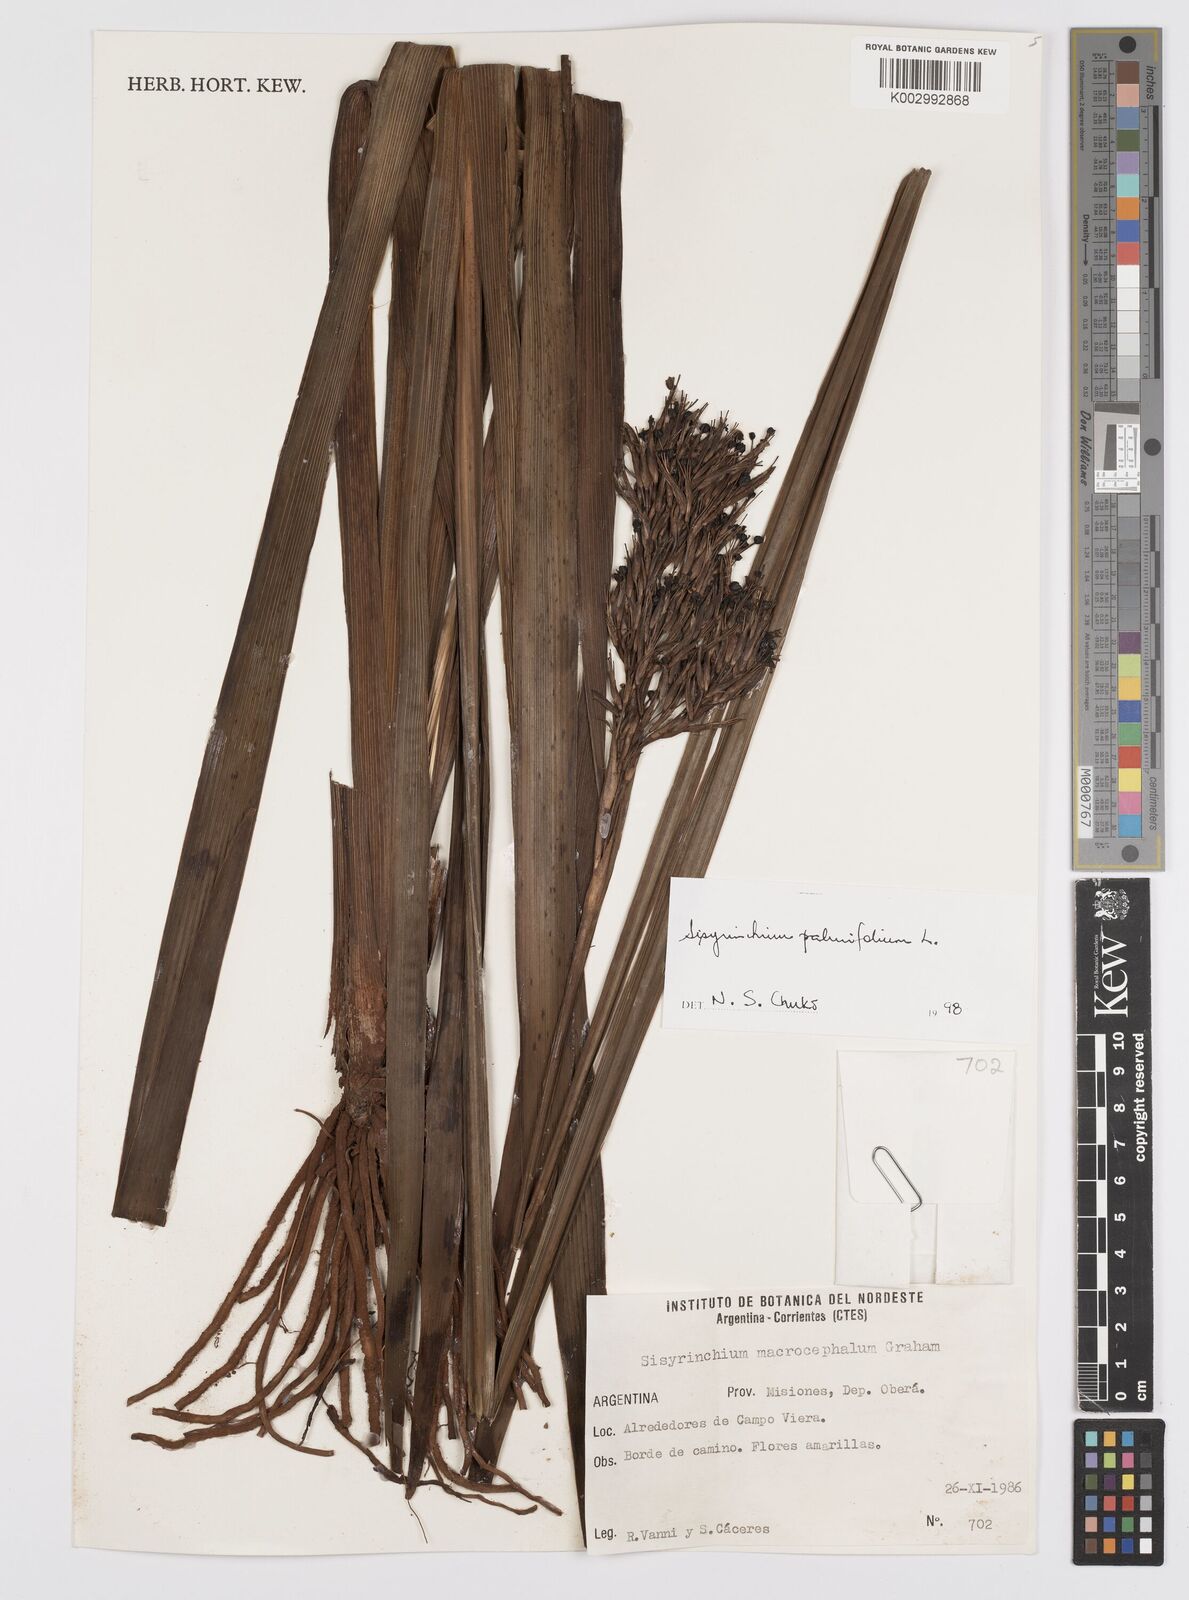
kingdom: Plantae
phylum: Tracheophyta
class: Liliopsida
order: Asparagales
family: Iridaceae
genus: Sisyrinchium
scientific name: Sisyrinchium palmifolium
